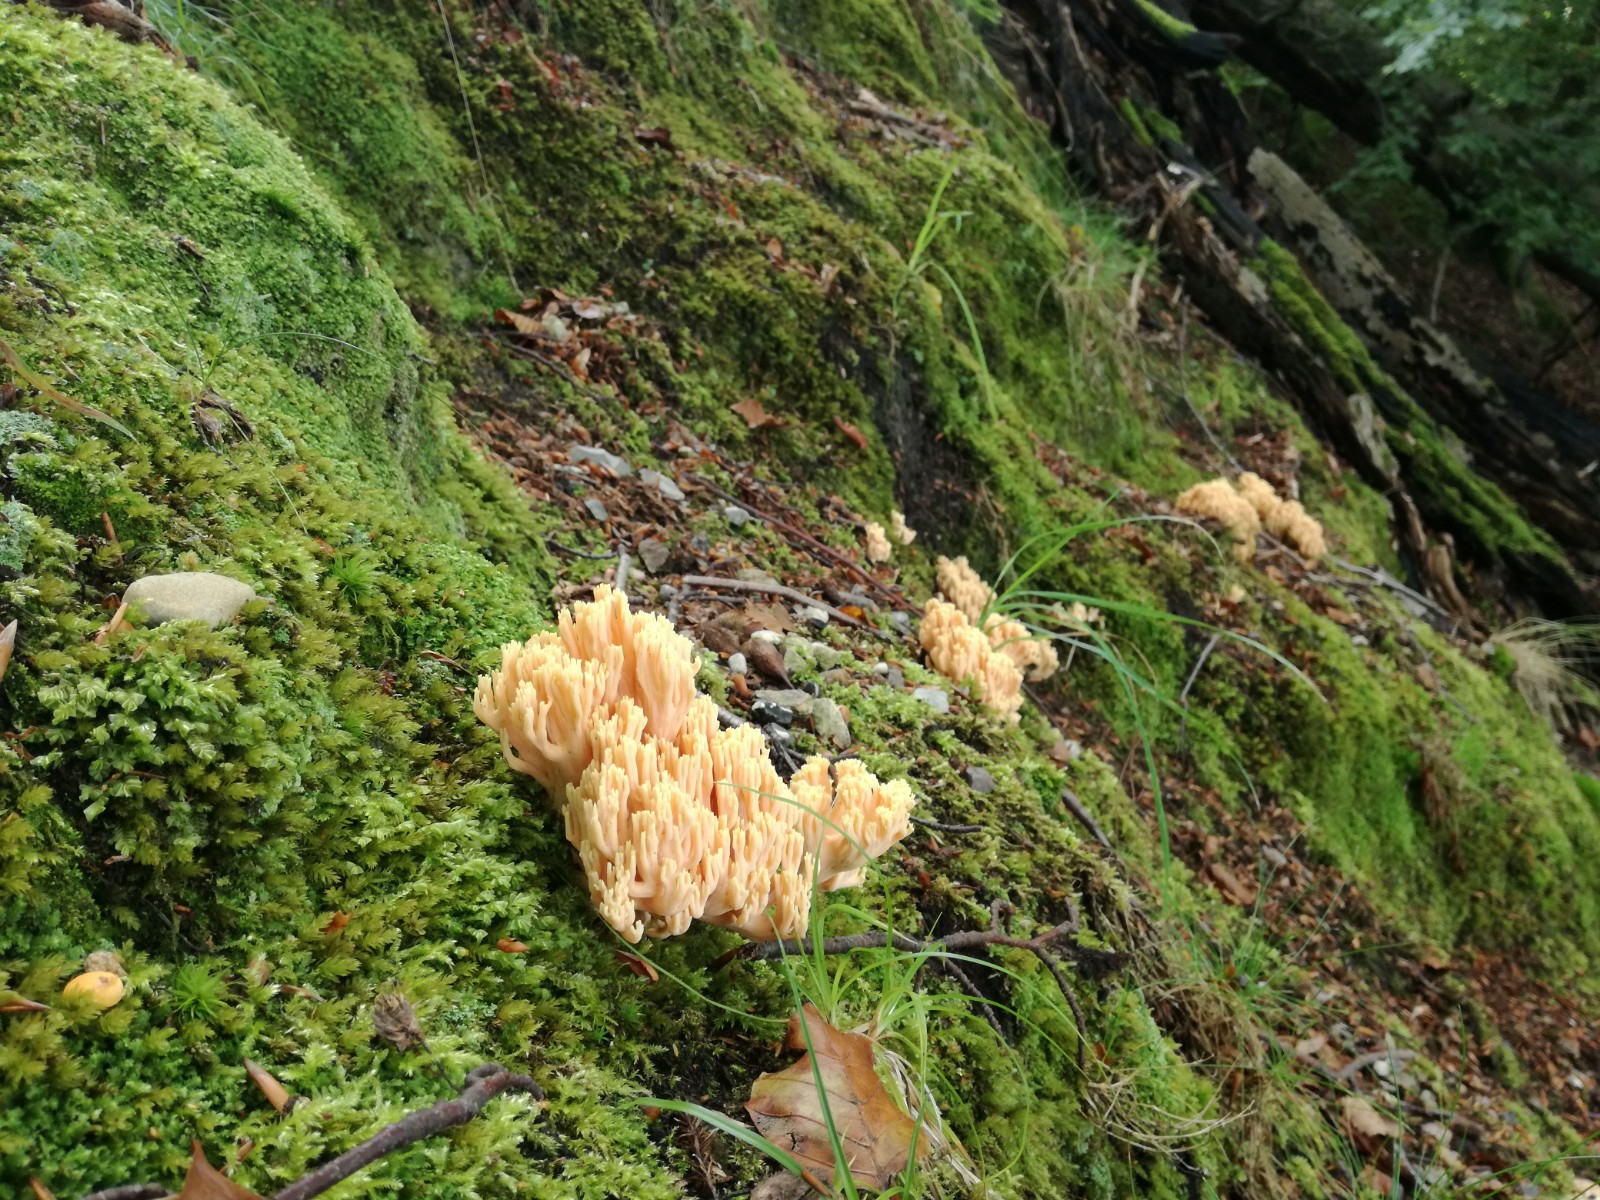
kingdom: Fungi
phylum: Basidiomycota
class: Agaricomycetes
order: Gomphales
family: Gomphaceae
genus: Ramaria
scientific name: Ramaria formosa
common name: smuk koralsvamp
